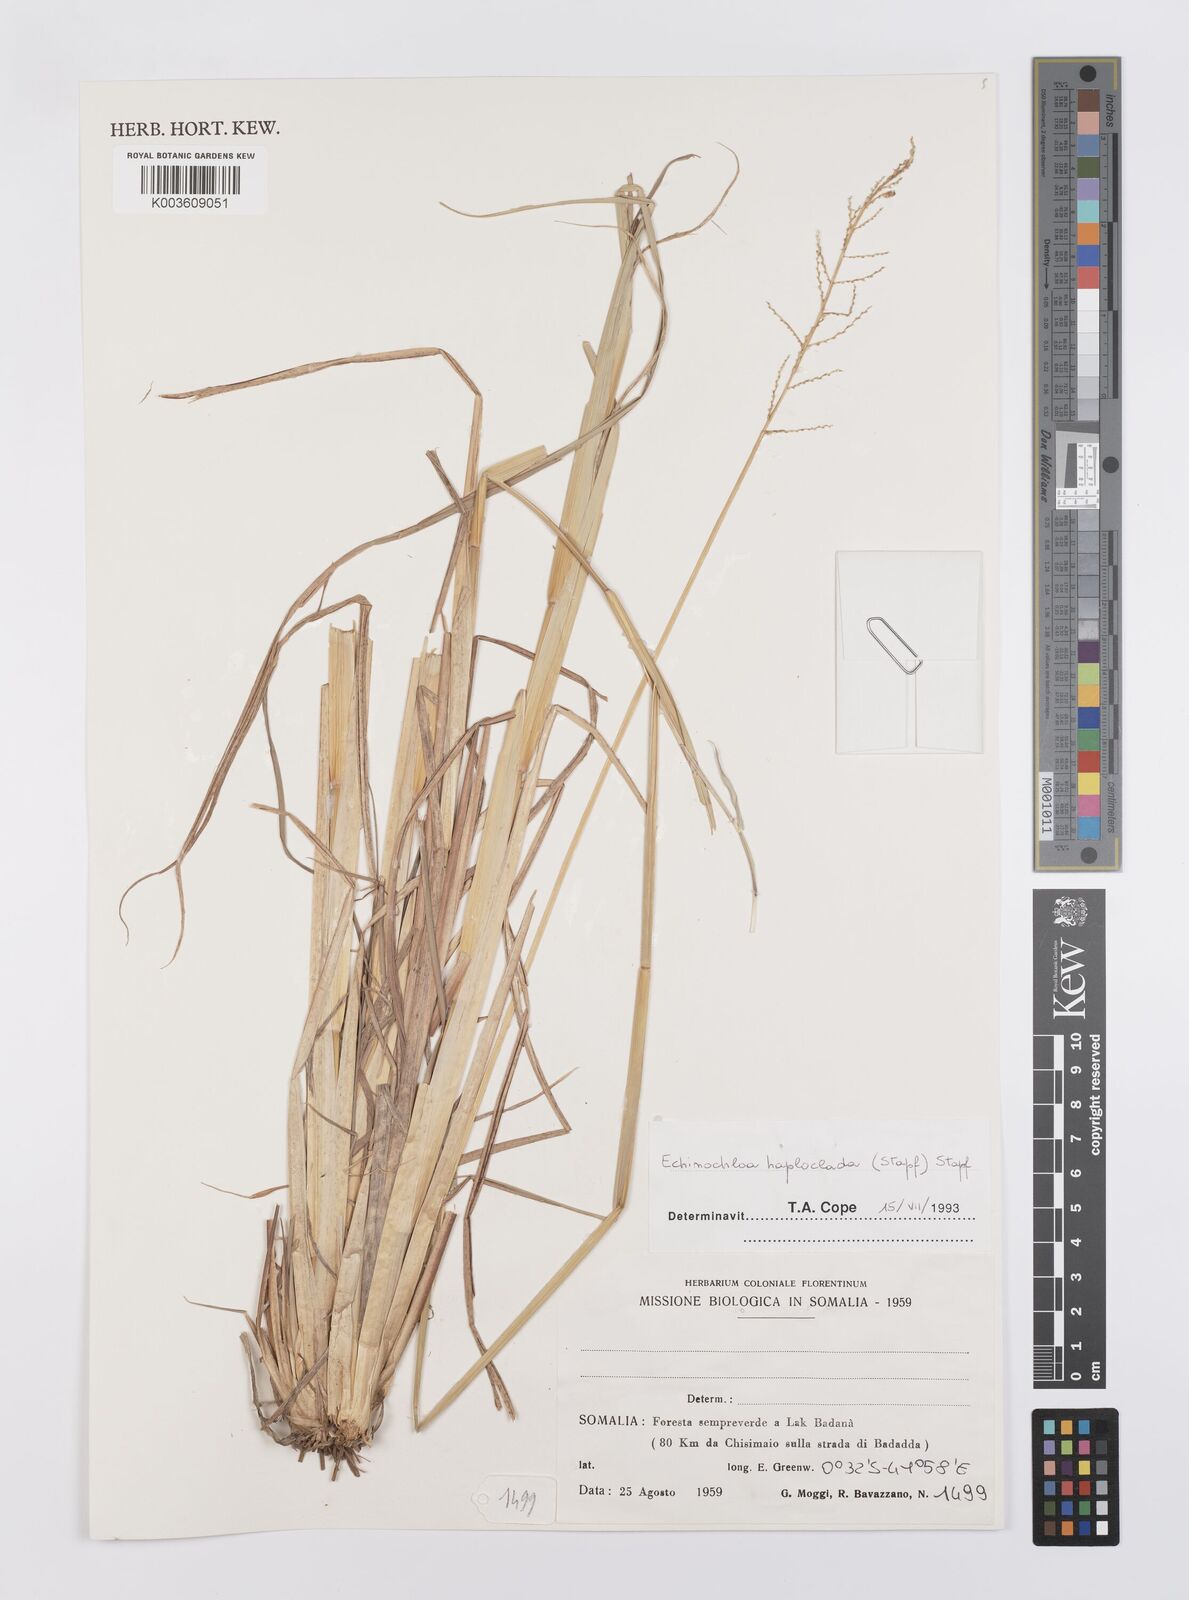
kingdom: Plantae
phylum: Tracheophyta
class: Liliopsida
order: Poales
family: Poaceae
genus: Echinochloa
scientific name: Echinochloa haploclada
